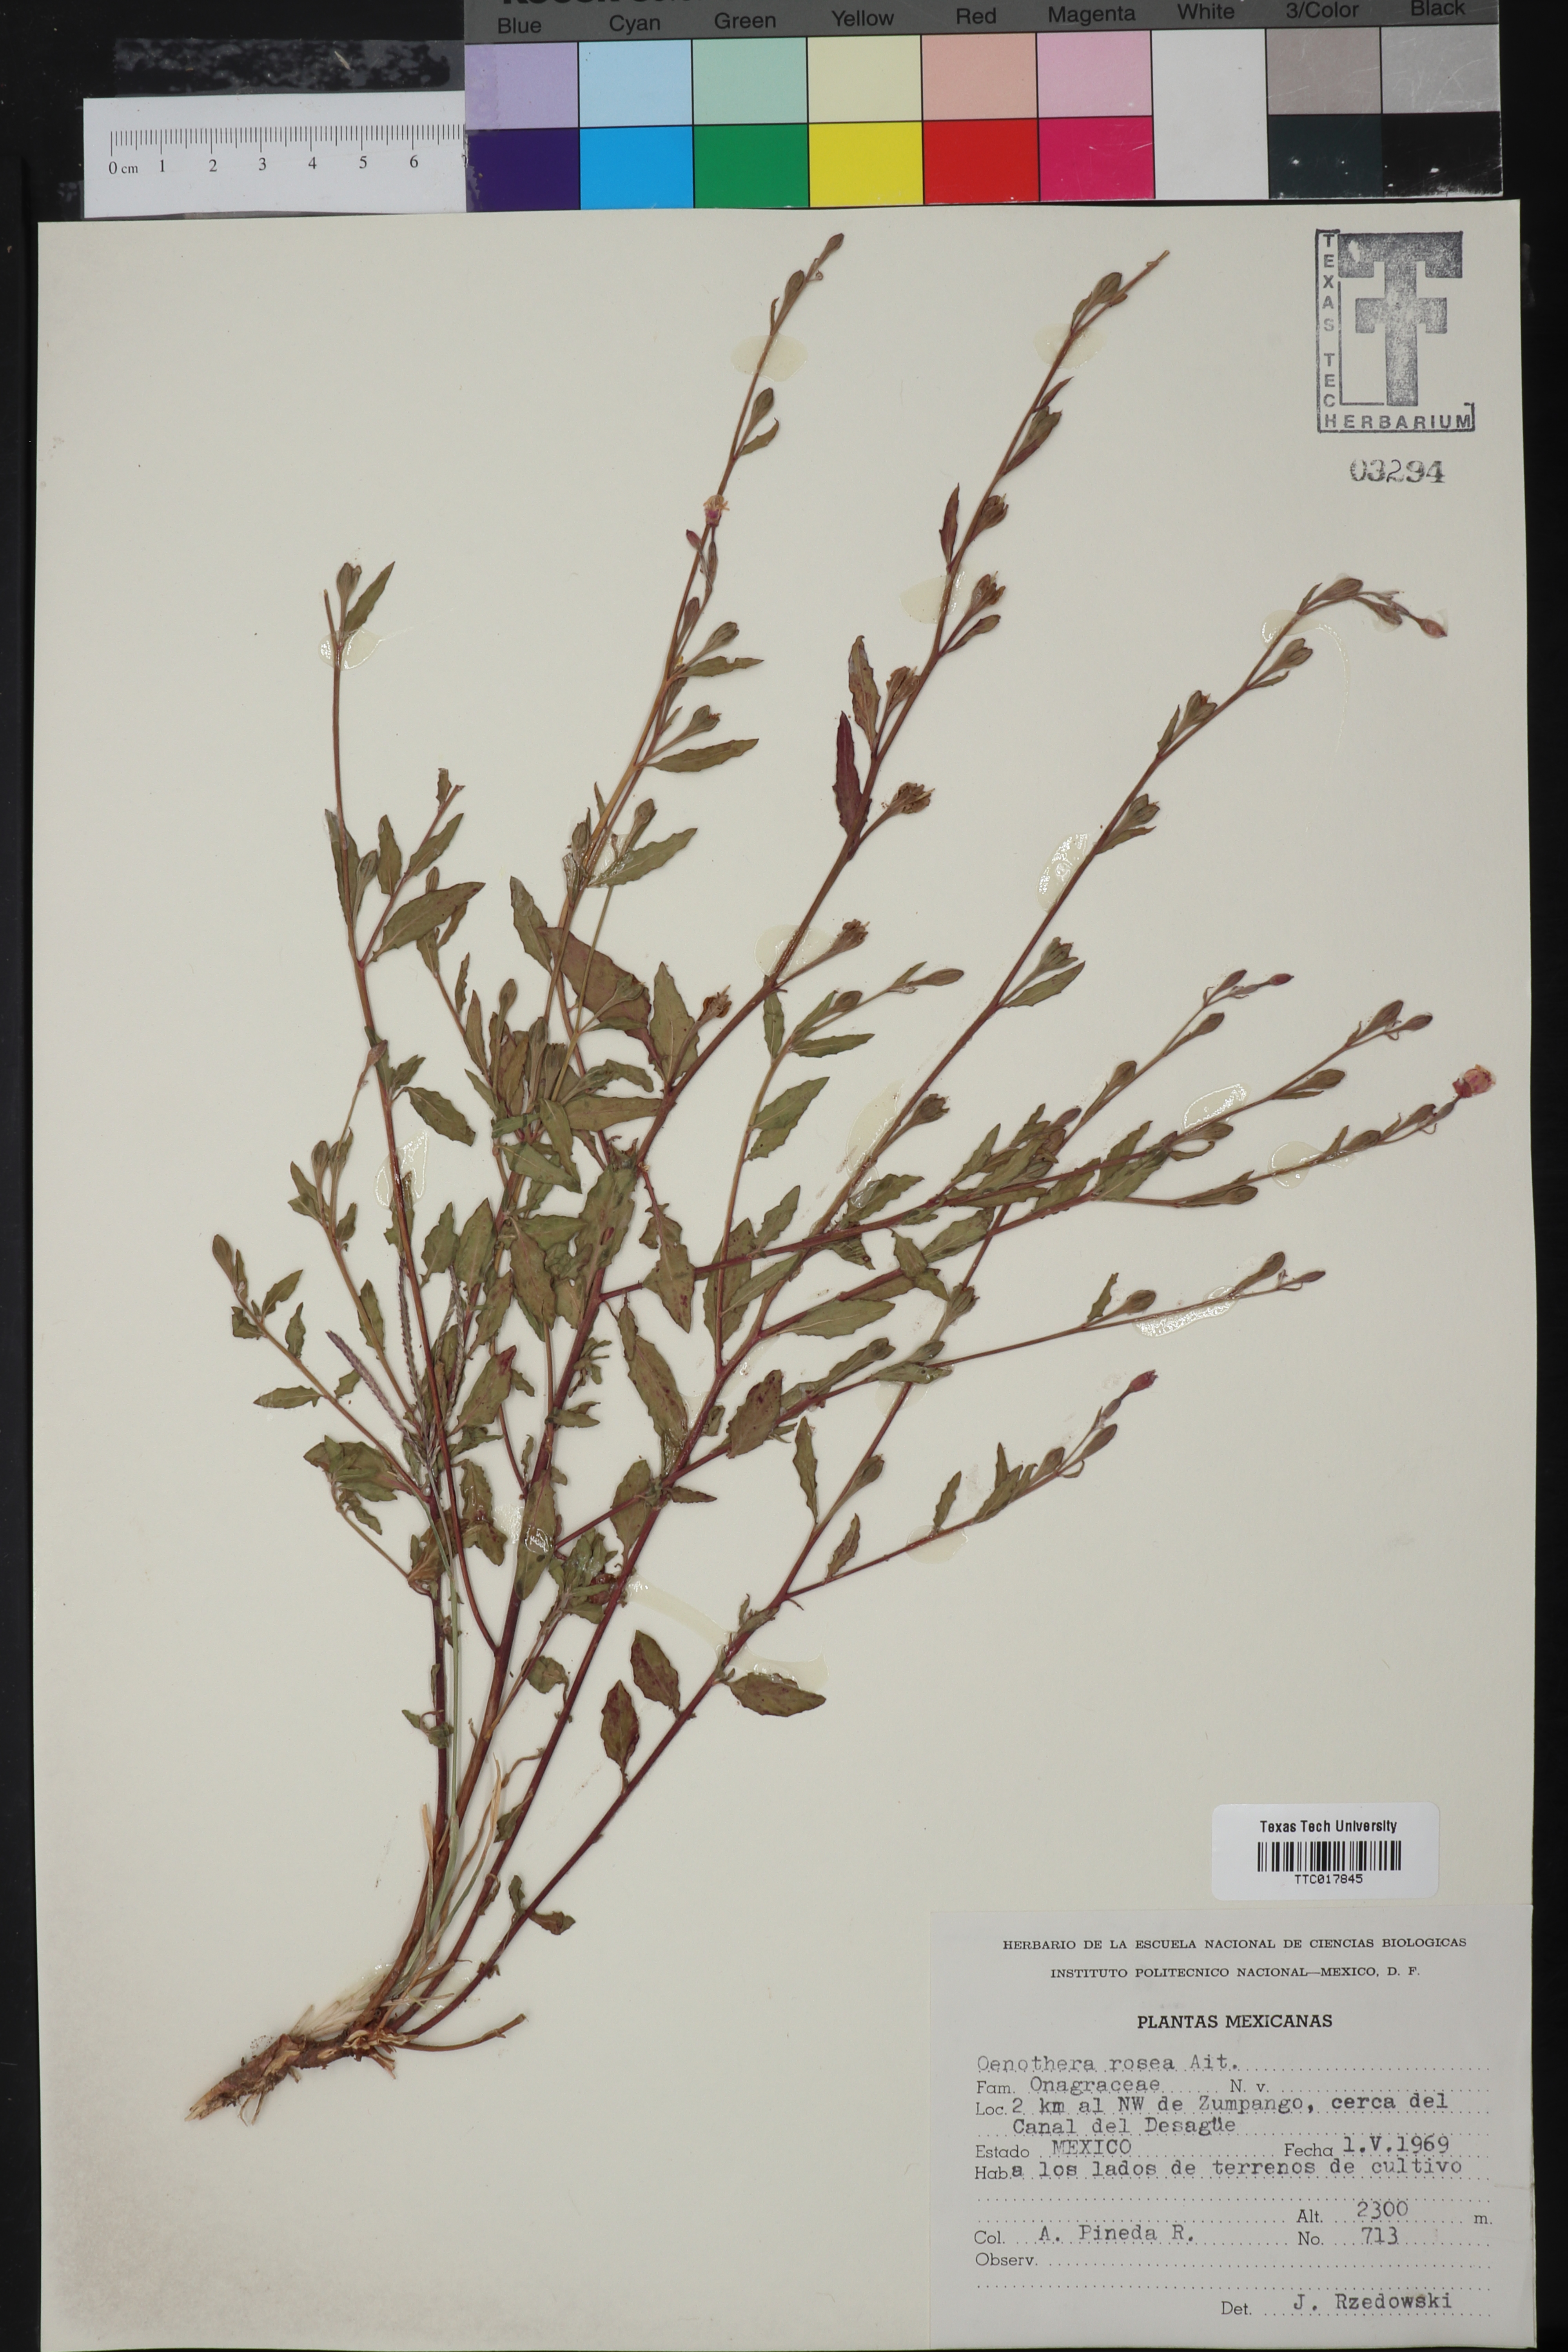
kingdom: Plantae
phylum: Tracheophyta
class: Magnoliopsida
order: Myrtales
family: Onagraceae
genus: Oenothera
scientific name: Oenothera rosea
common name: Rosy evening-primrose
